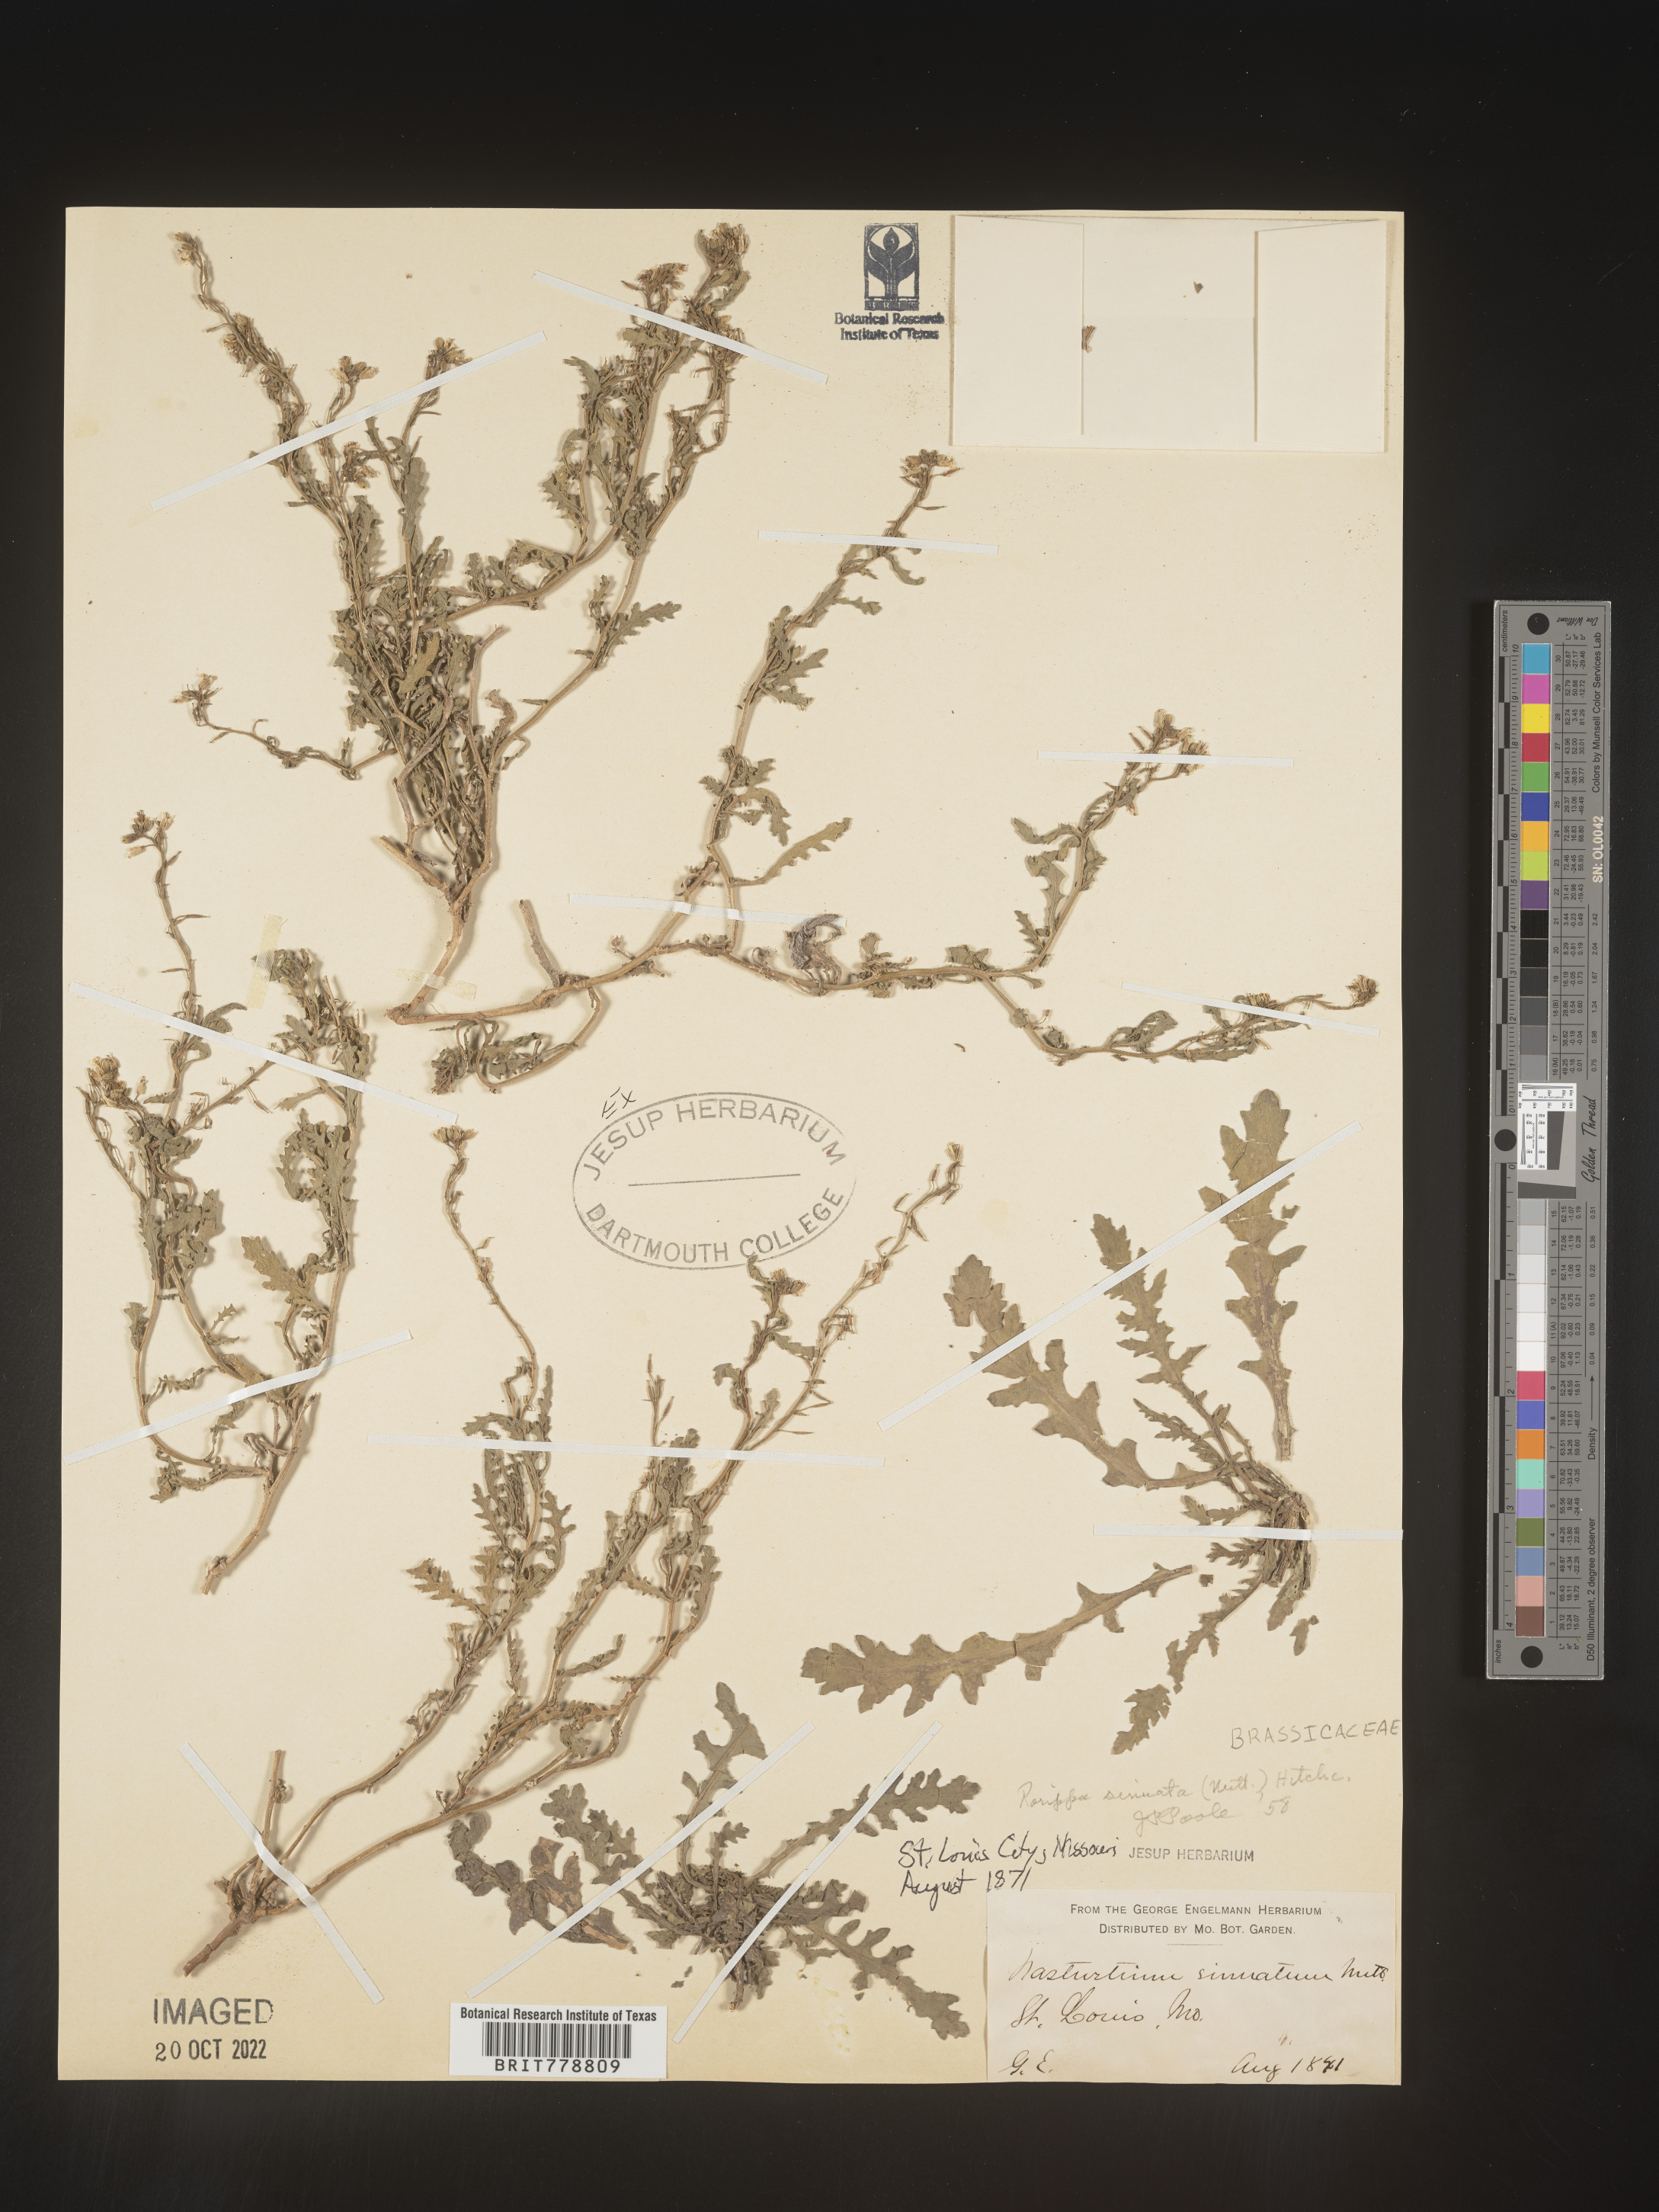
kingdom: Plantae
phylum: Tracheophyta
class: Magnoliopsida
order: Brassicales
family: Brassicaceae
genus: Rorippa
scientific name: Rorippa sinuata
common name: Spread yellow cress
